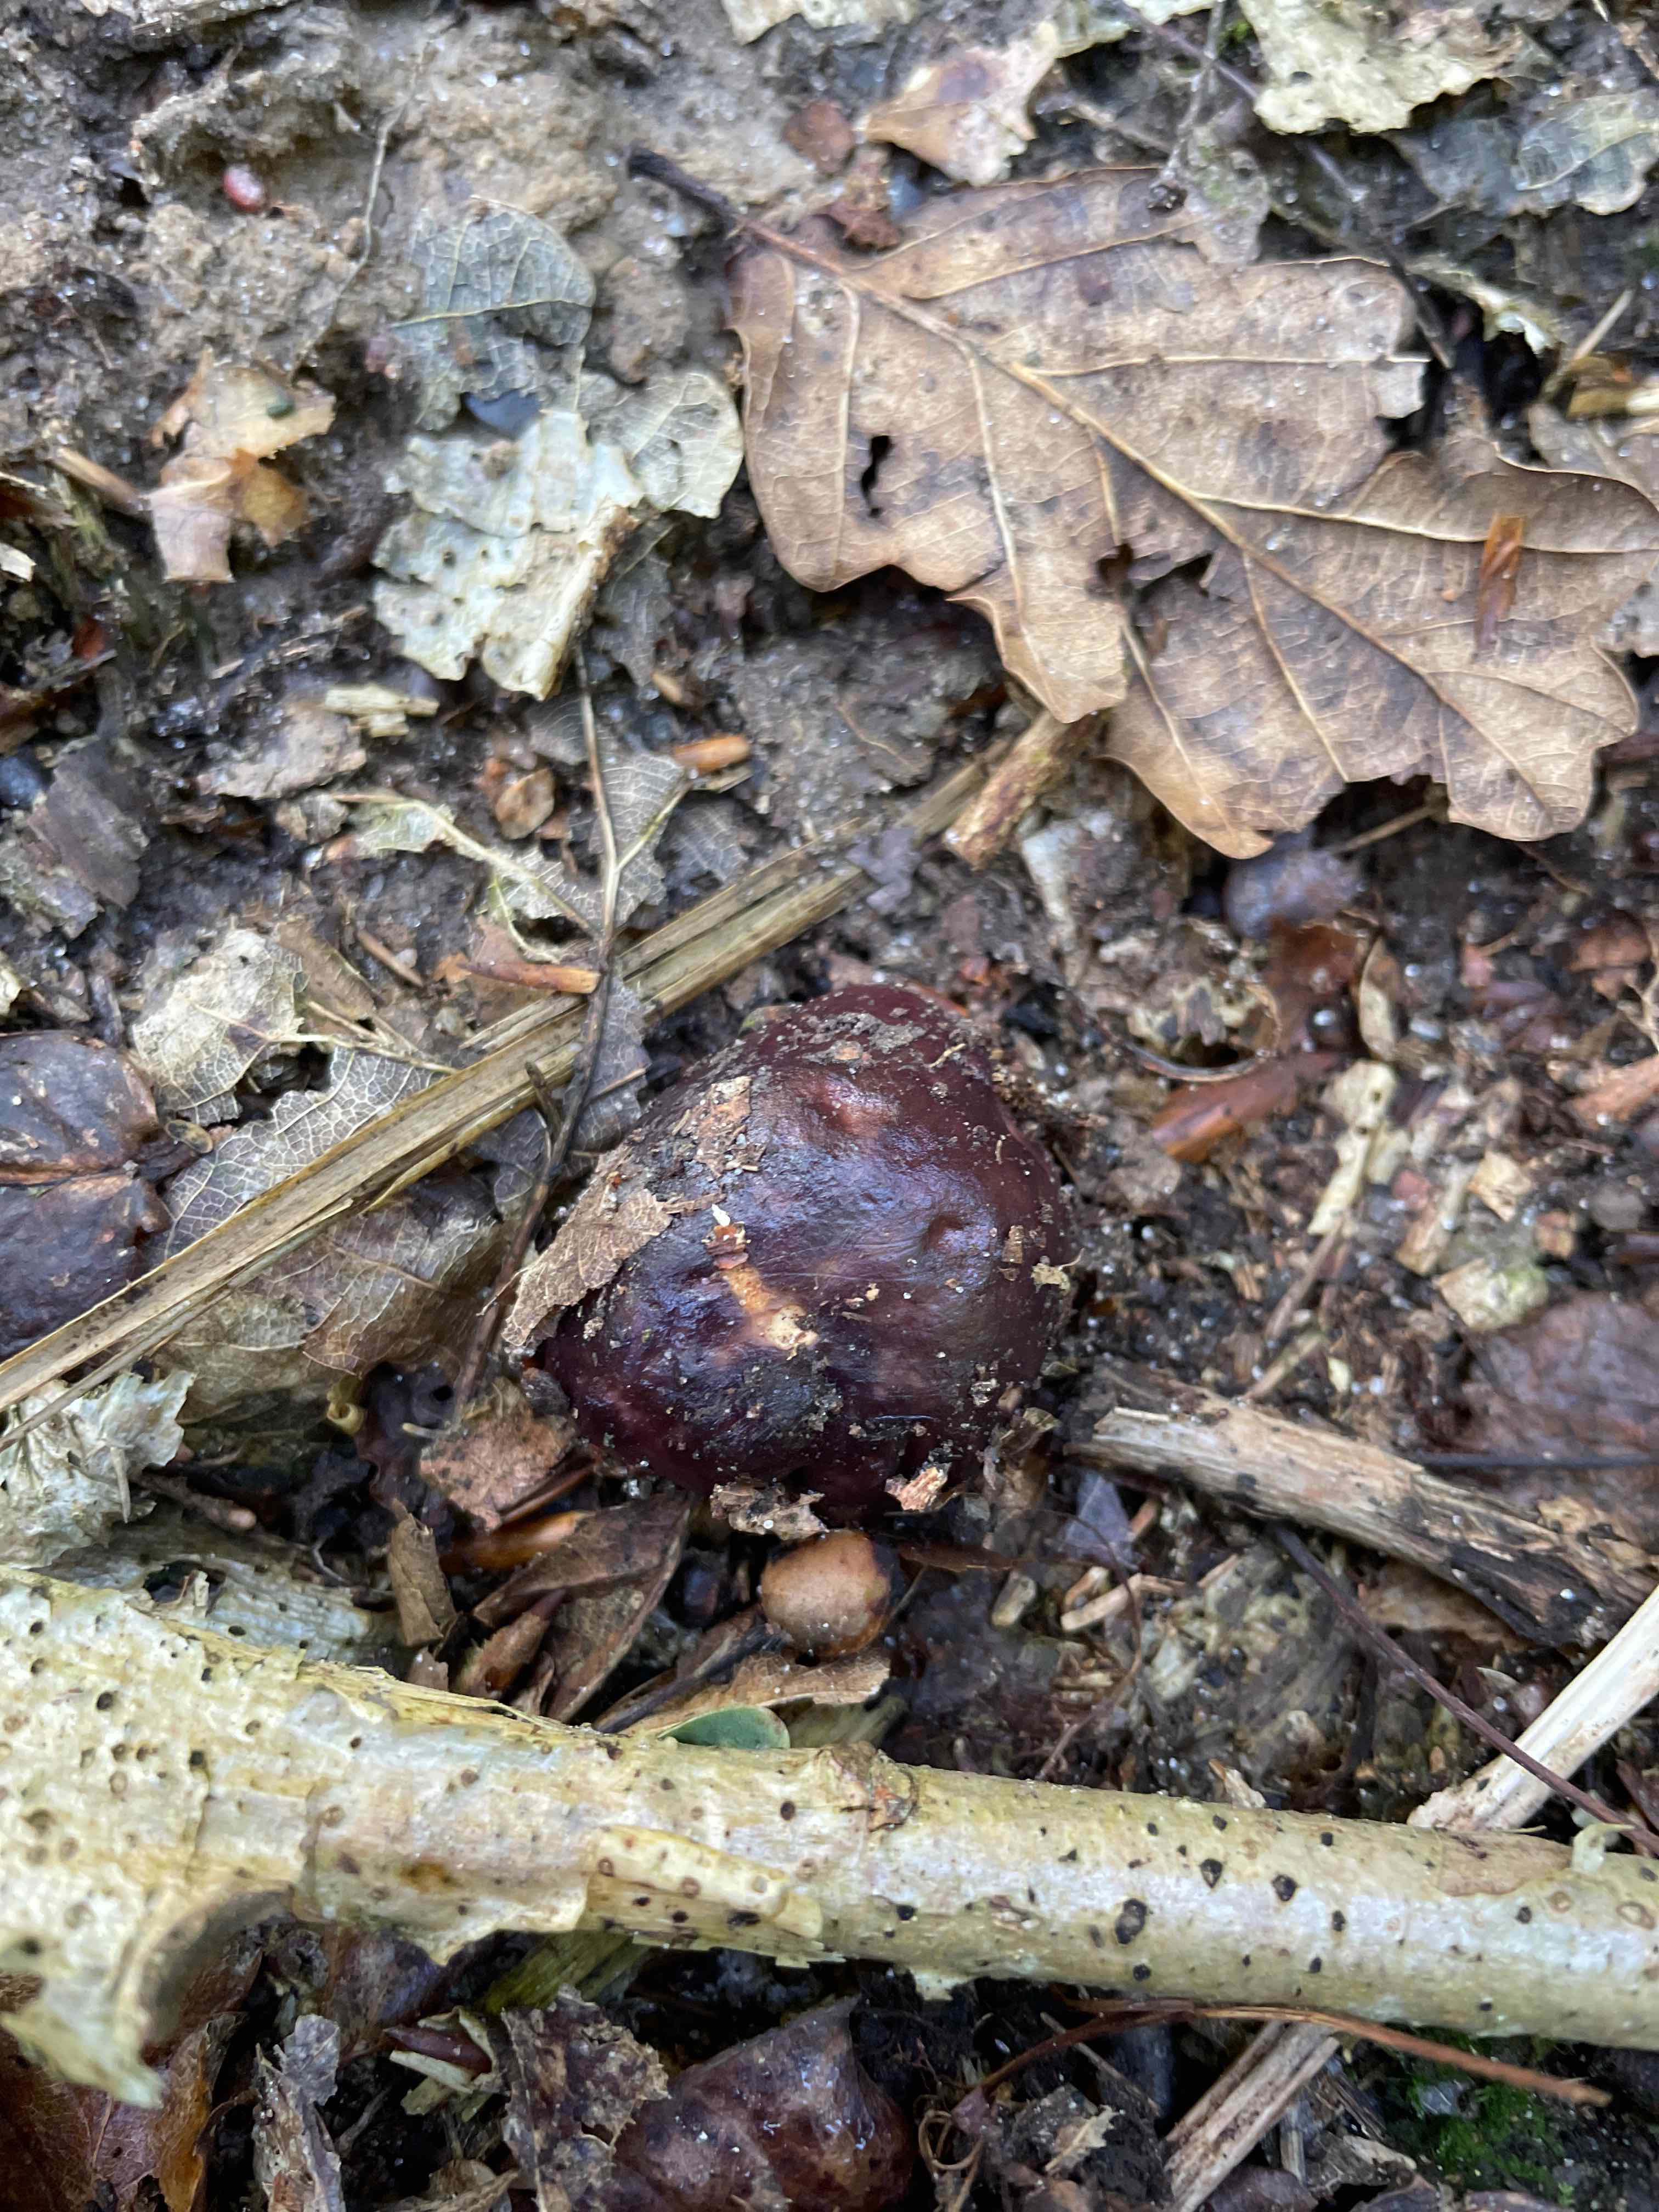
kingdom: Fungi
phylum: Basidiomycota
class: Agaricomycetes
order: Russulales
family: Russulaceae
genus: Russula
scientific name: Russula
